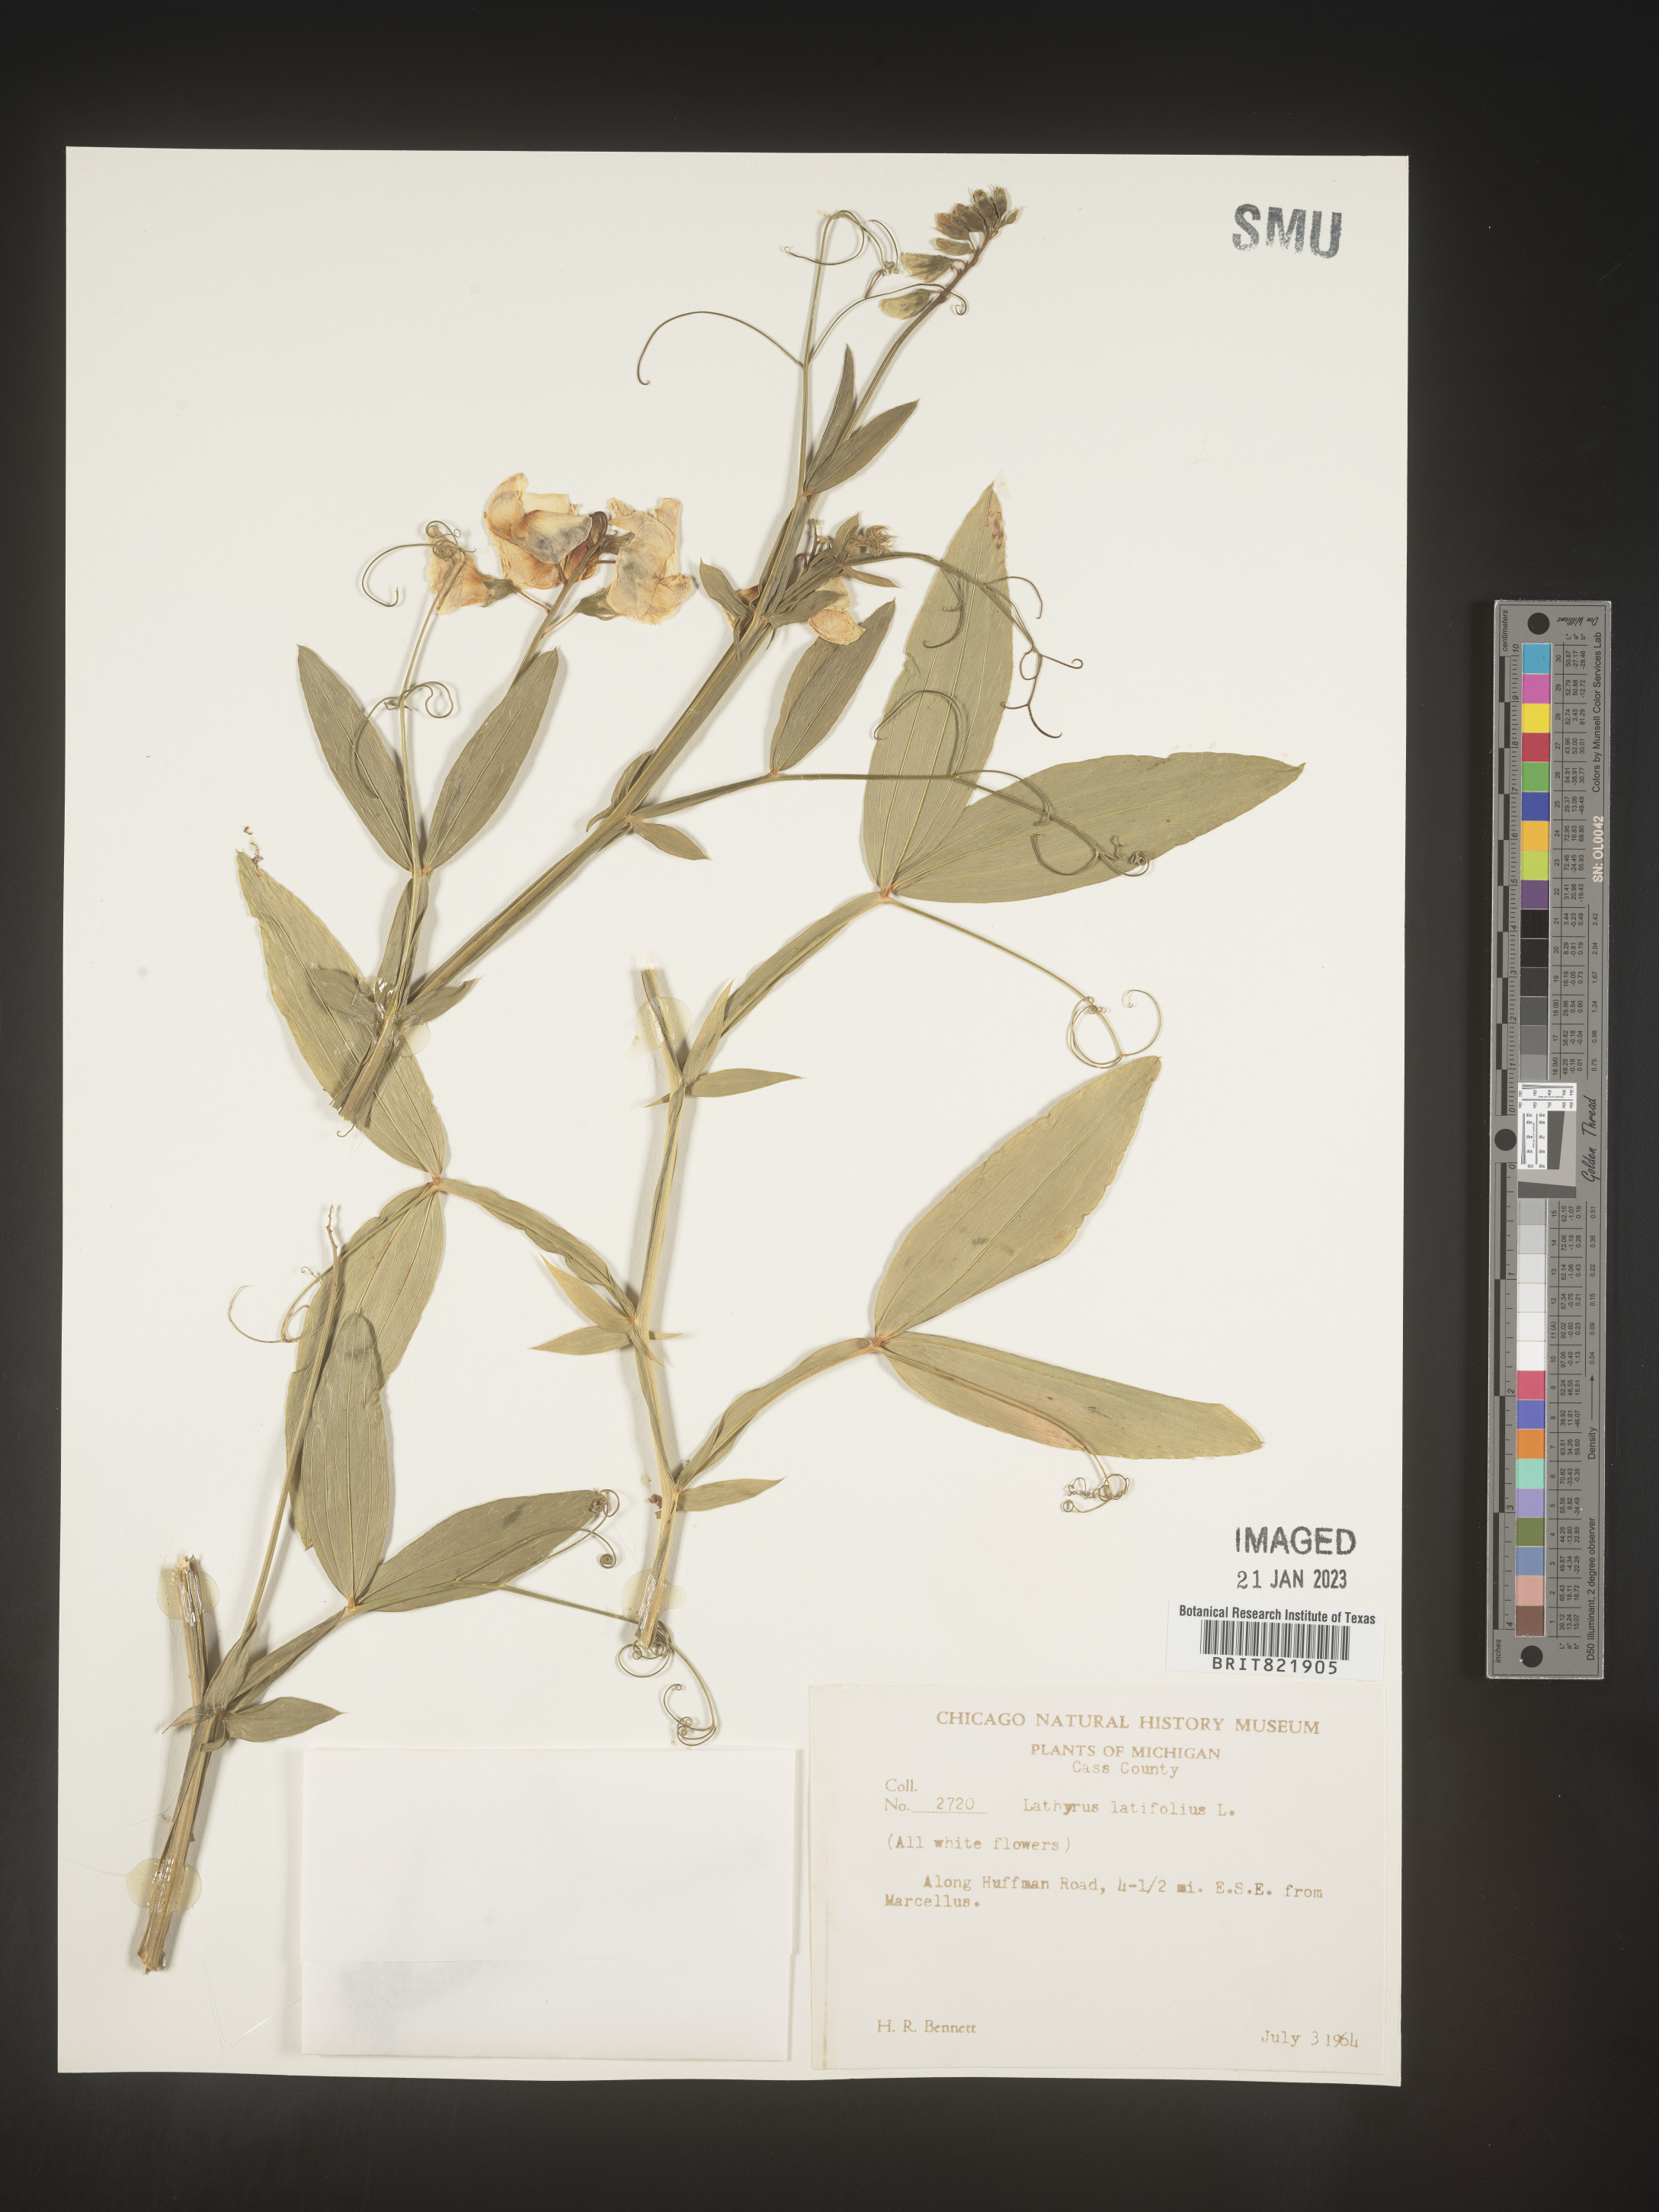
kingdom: Plantae
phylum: Tracheophyta
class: Magnoliopsida
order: Fabales
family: Fabaceae
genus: Lathyrus
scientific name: Lathyrus latifolius
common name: Perennial pea
